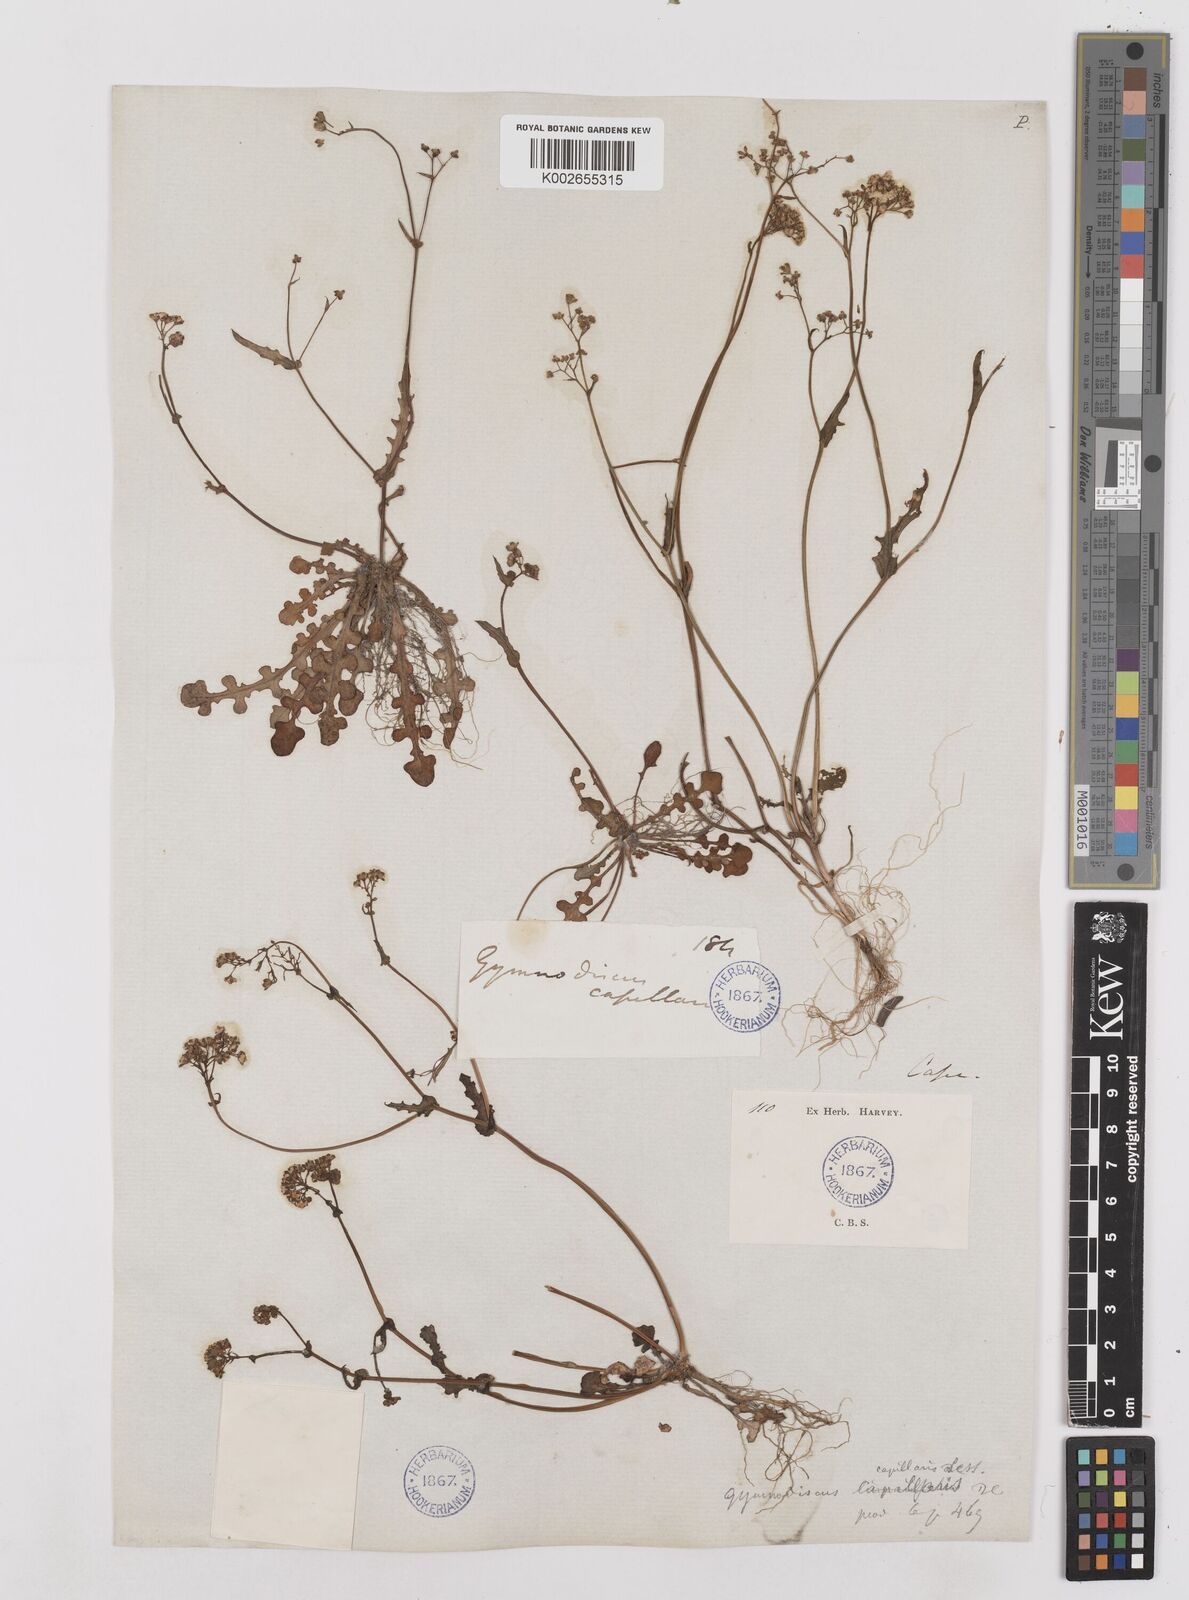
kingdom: Plantae
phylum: Tracheophyta
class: Magnoliopsida
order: Asterales
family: Asteraceae
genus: Gymnodiscus
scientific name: Gymnodiscus capillaris
